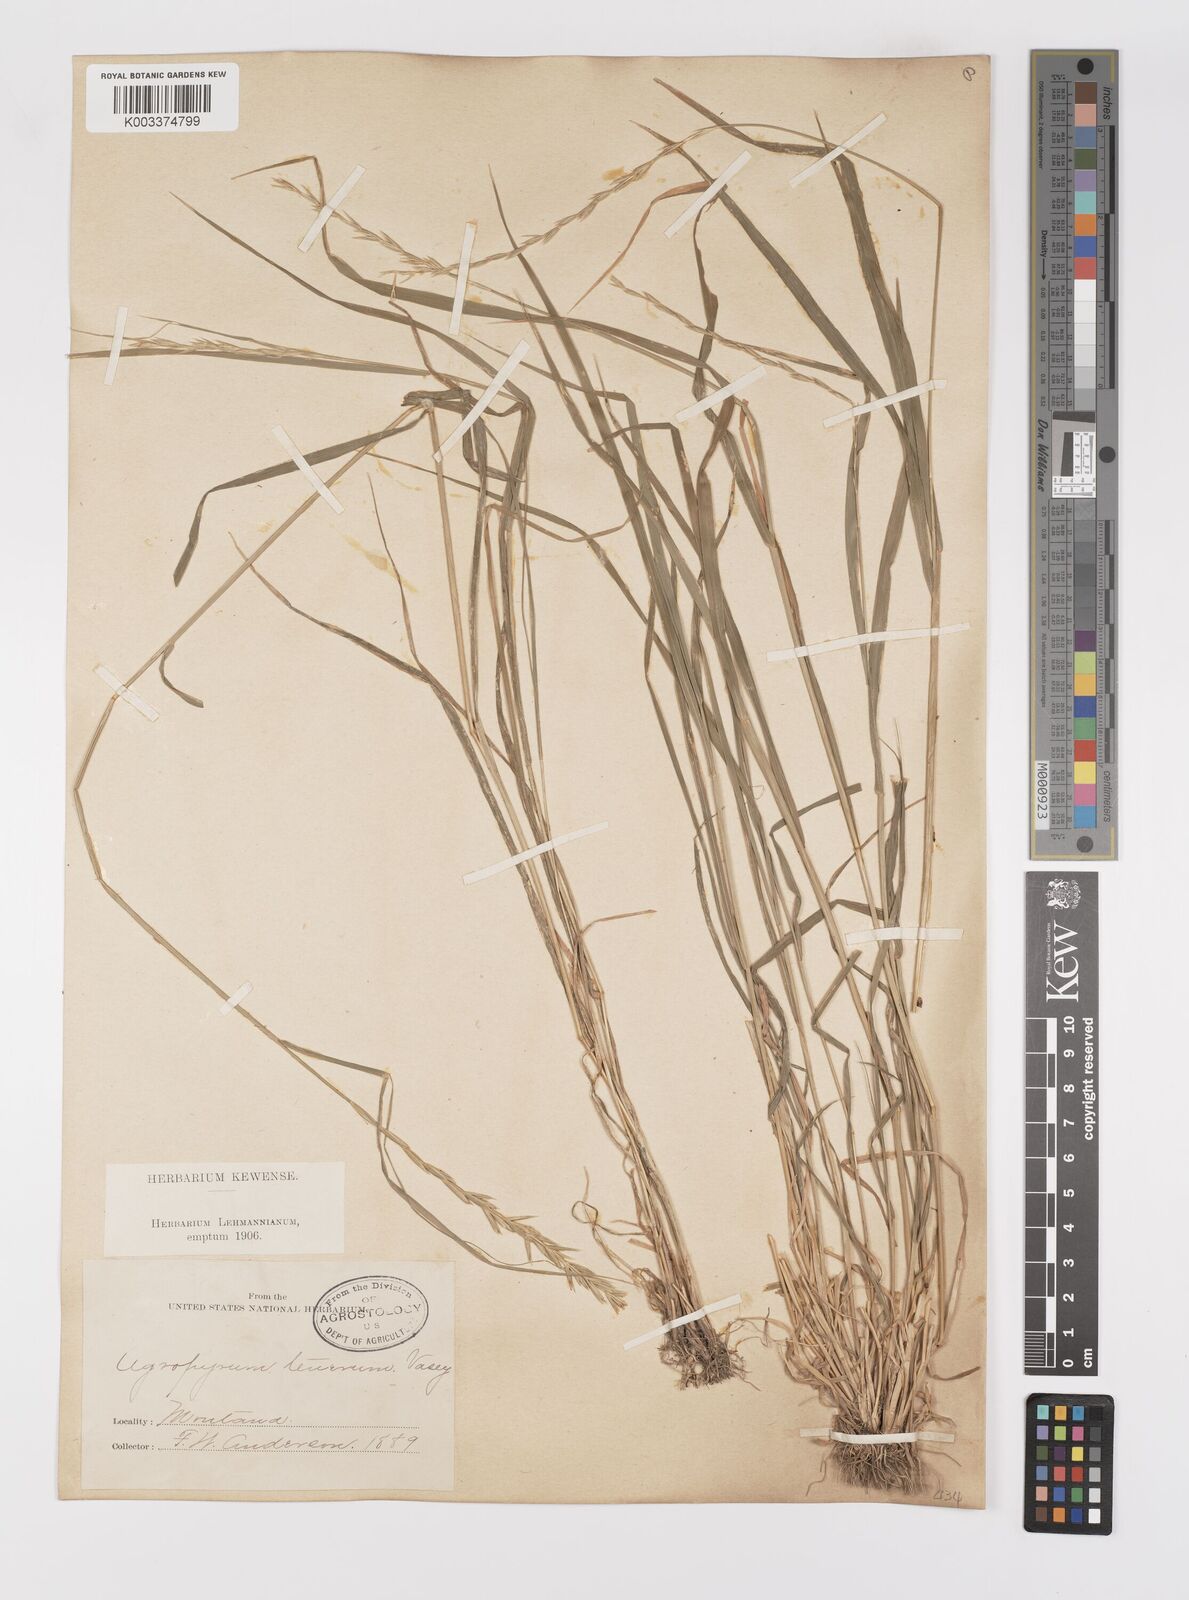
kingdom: Plantae
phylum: Tracheophyta
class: Liliopsida
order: Poales
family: Poaceae
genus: Elymus
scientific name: Elymus violaceus
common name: Arctic wheatgrass
